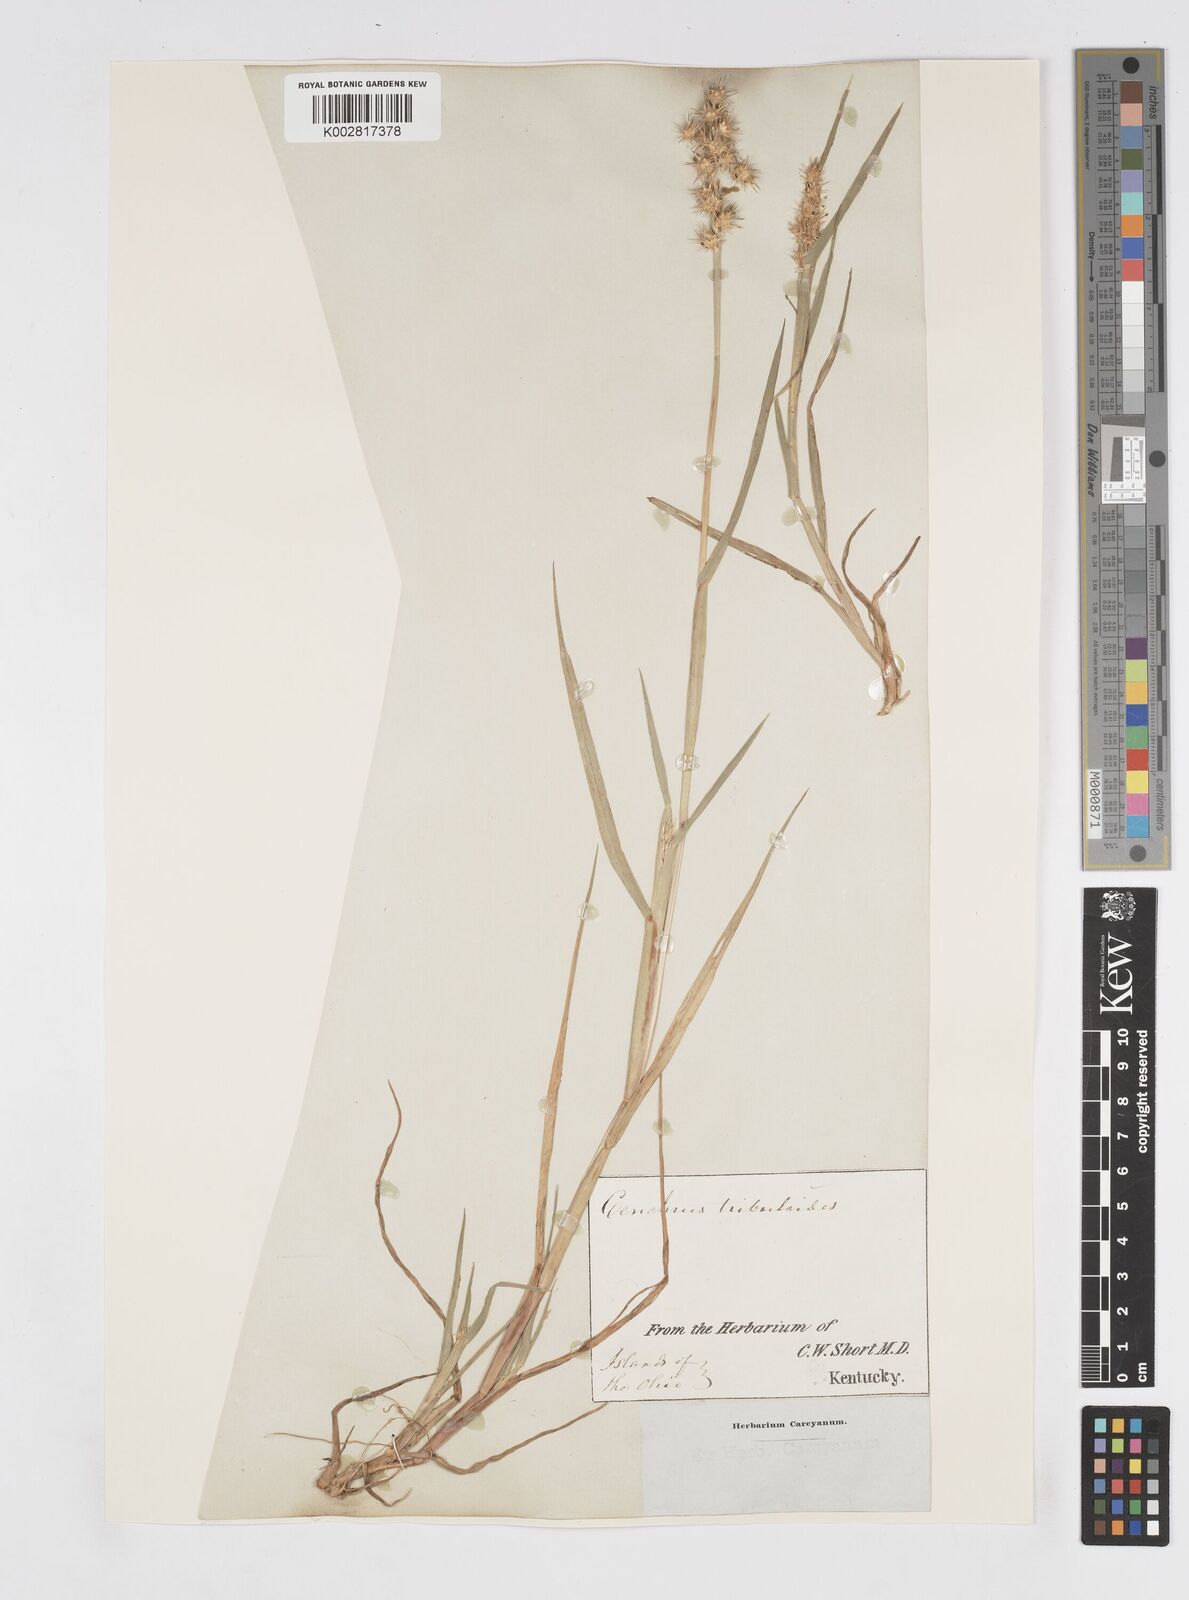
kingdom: Plantae
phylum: Tracheophyta
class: Liliopsida
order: Poales
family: Poaceae
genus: Cenchrus
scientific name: Cenchrus longispinus
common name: Mat sandbur
